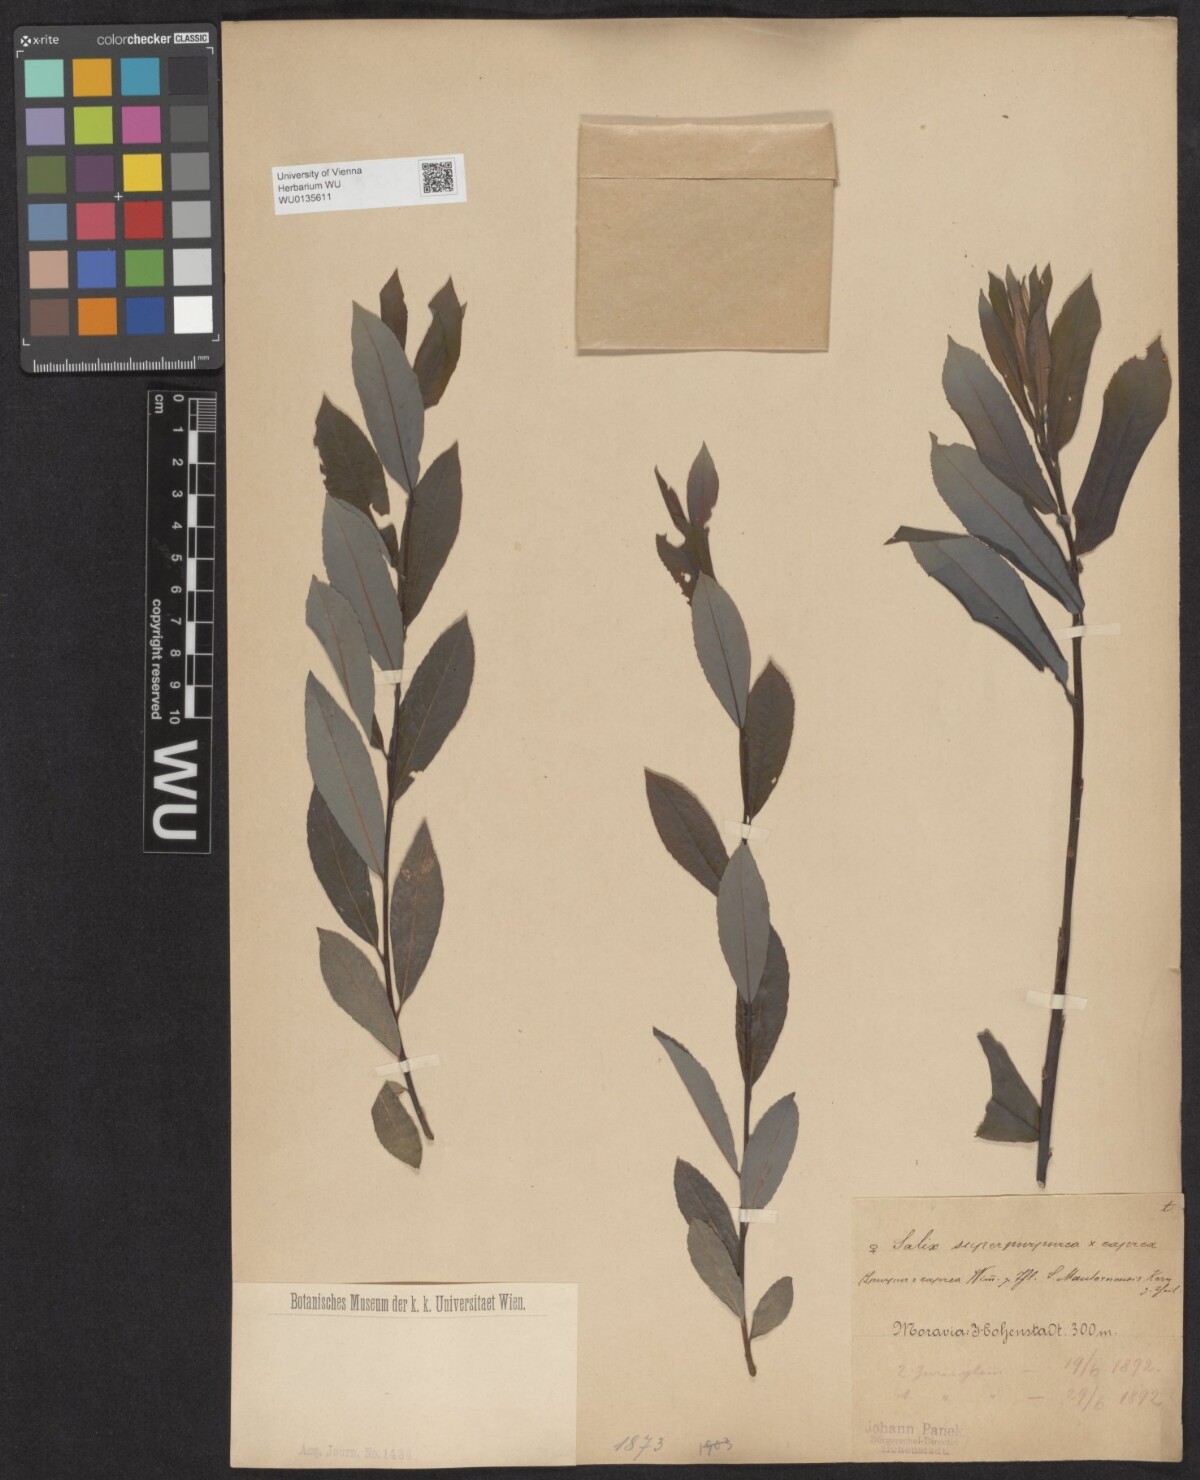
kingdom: Plantae
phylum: Tracheophyta
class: Magnoliopsida
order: Malpighiales
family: Salicaceae
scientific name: Salicaceae
